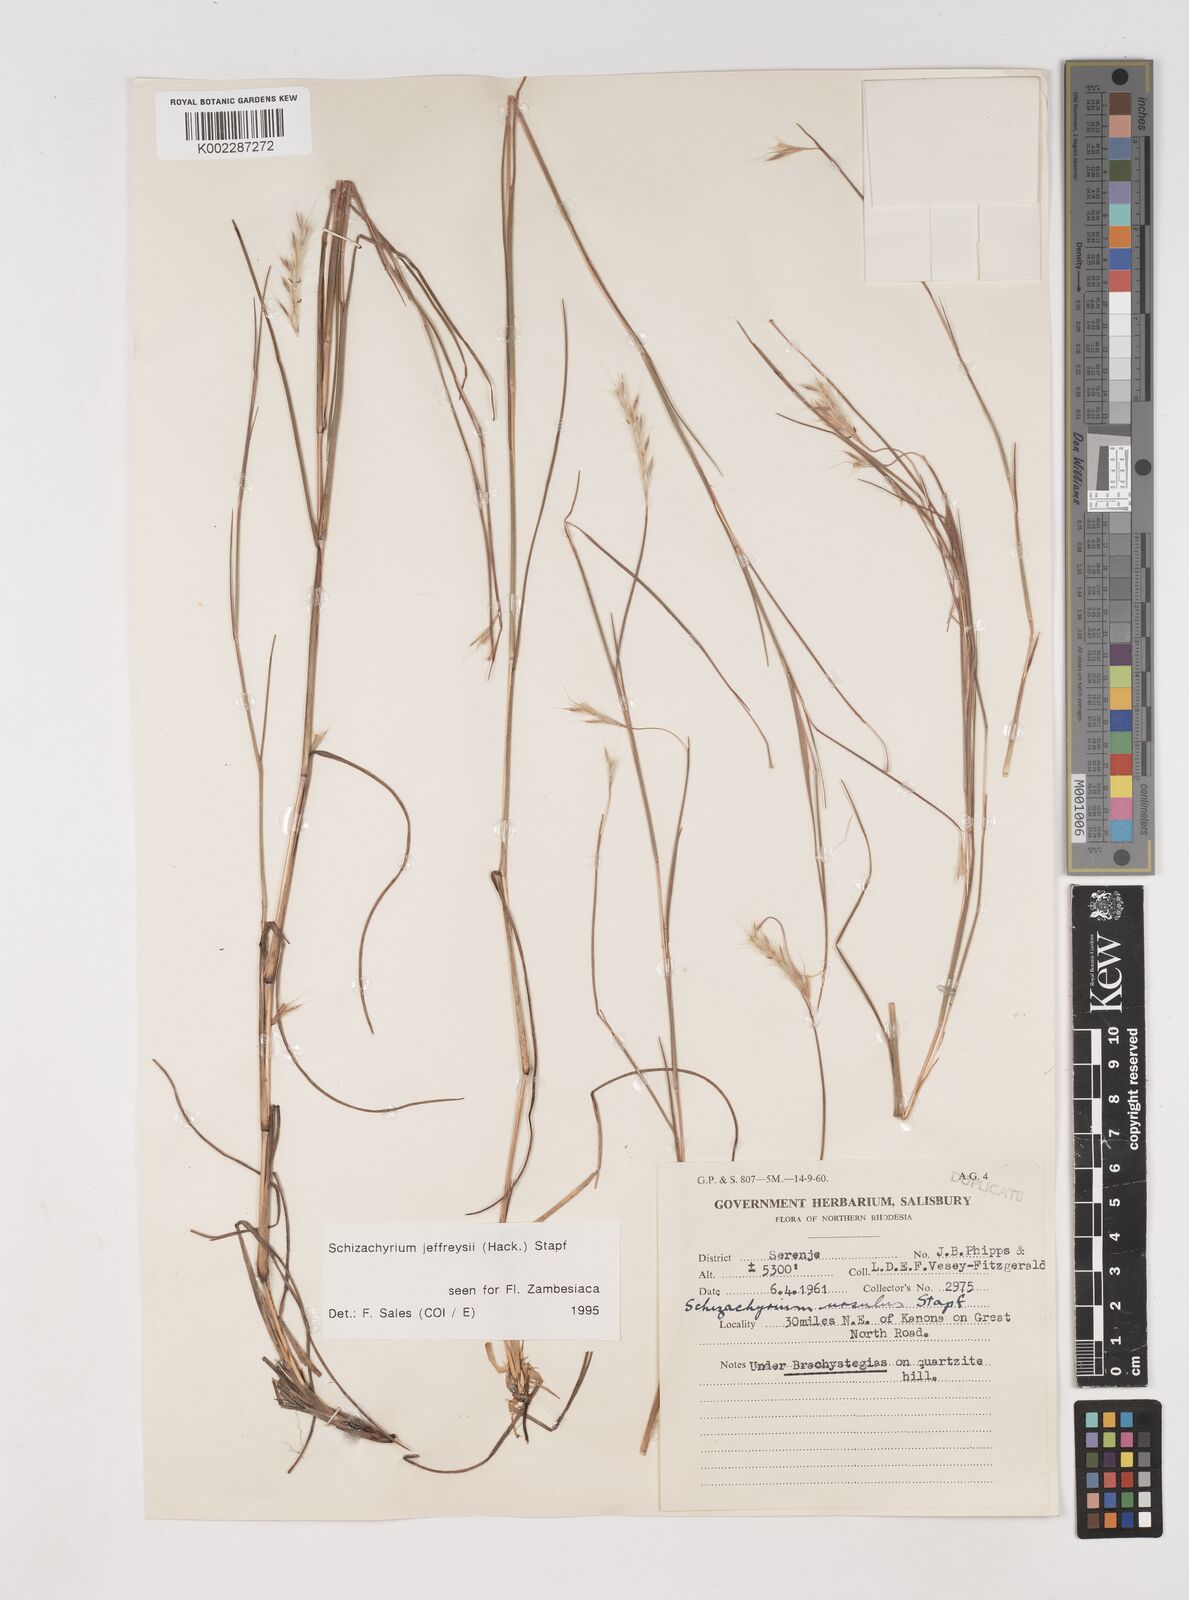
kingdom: Plantae
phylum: Tracheophyta
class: Liliopsida
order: Poales
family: Poaceae
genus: Schizachyrium
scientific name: Schizachyrium jeffreysii
